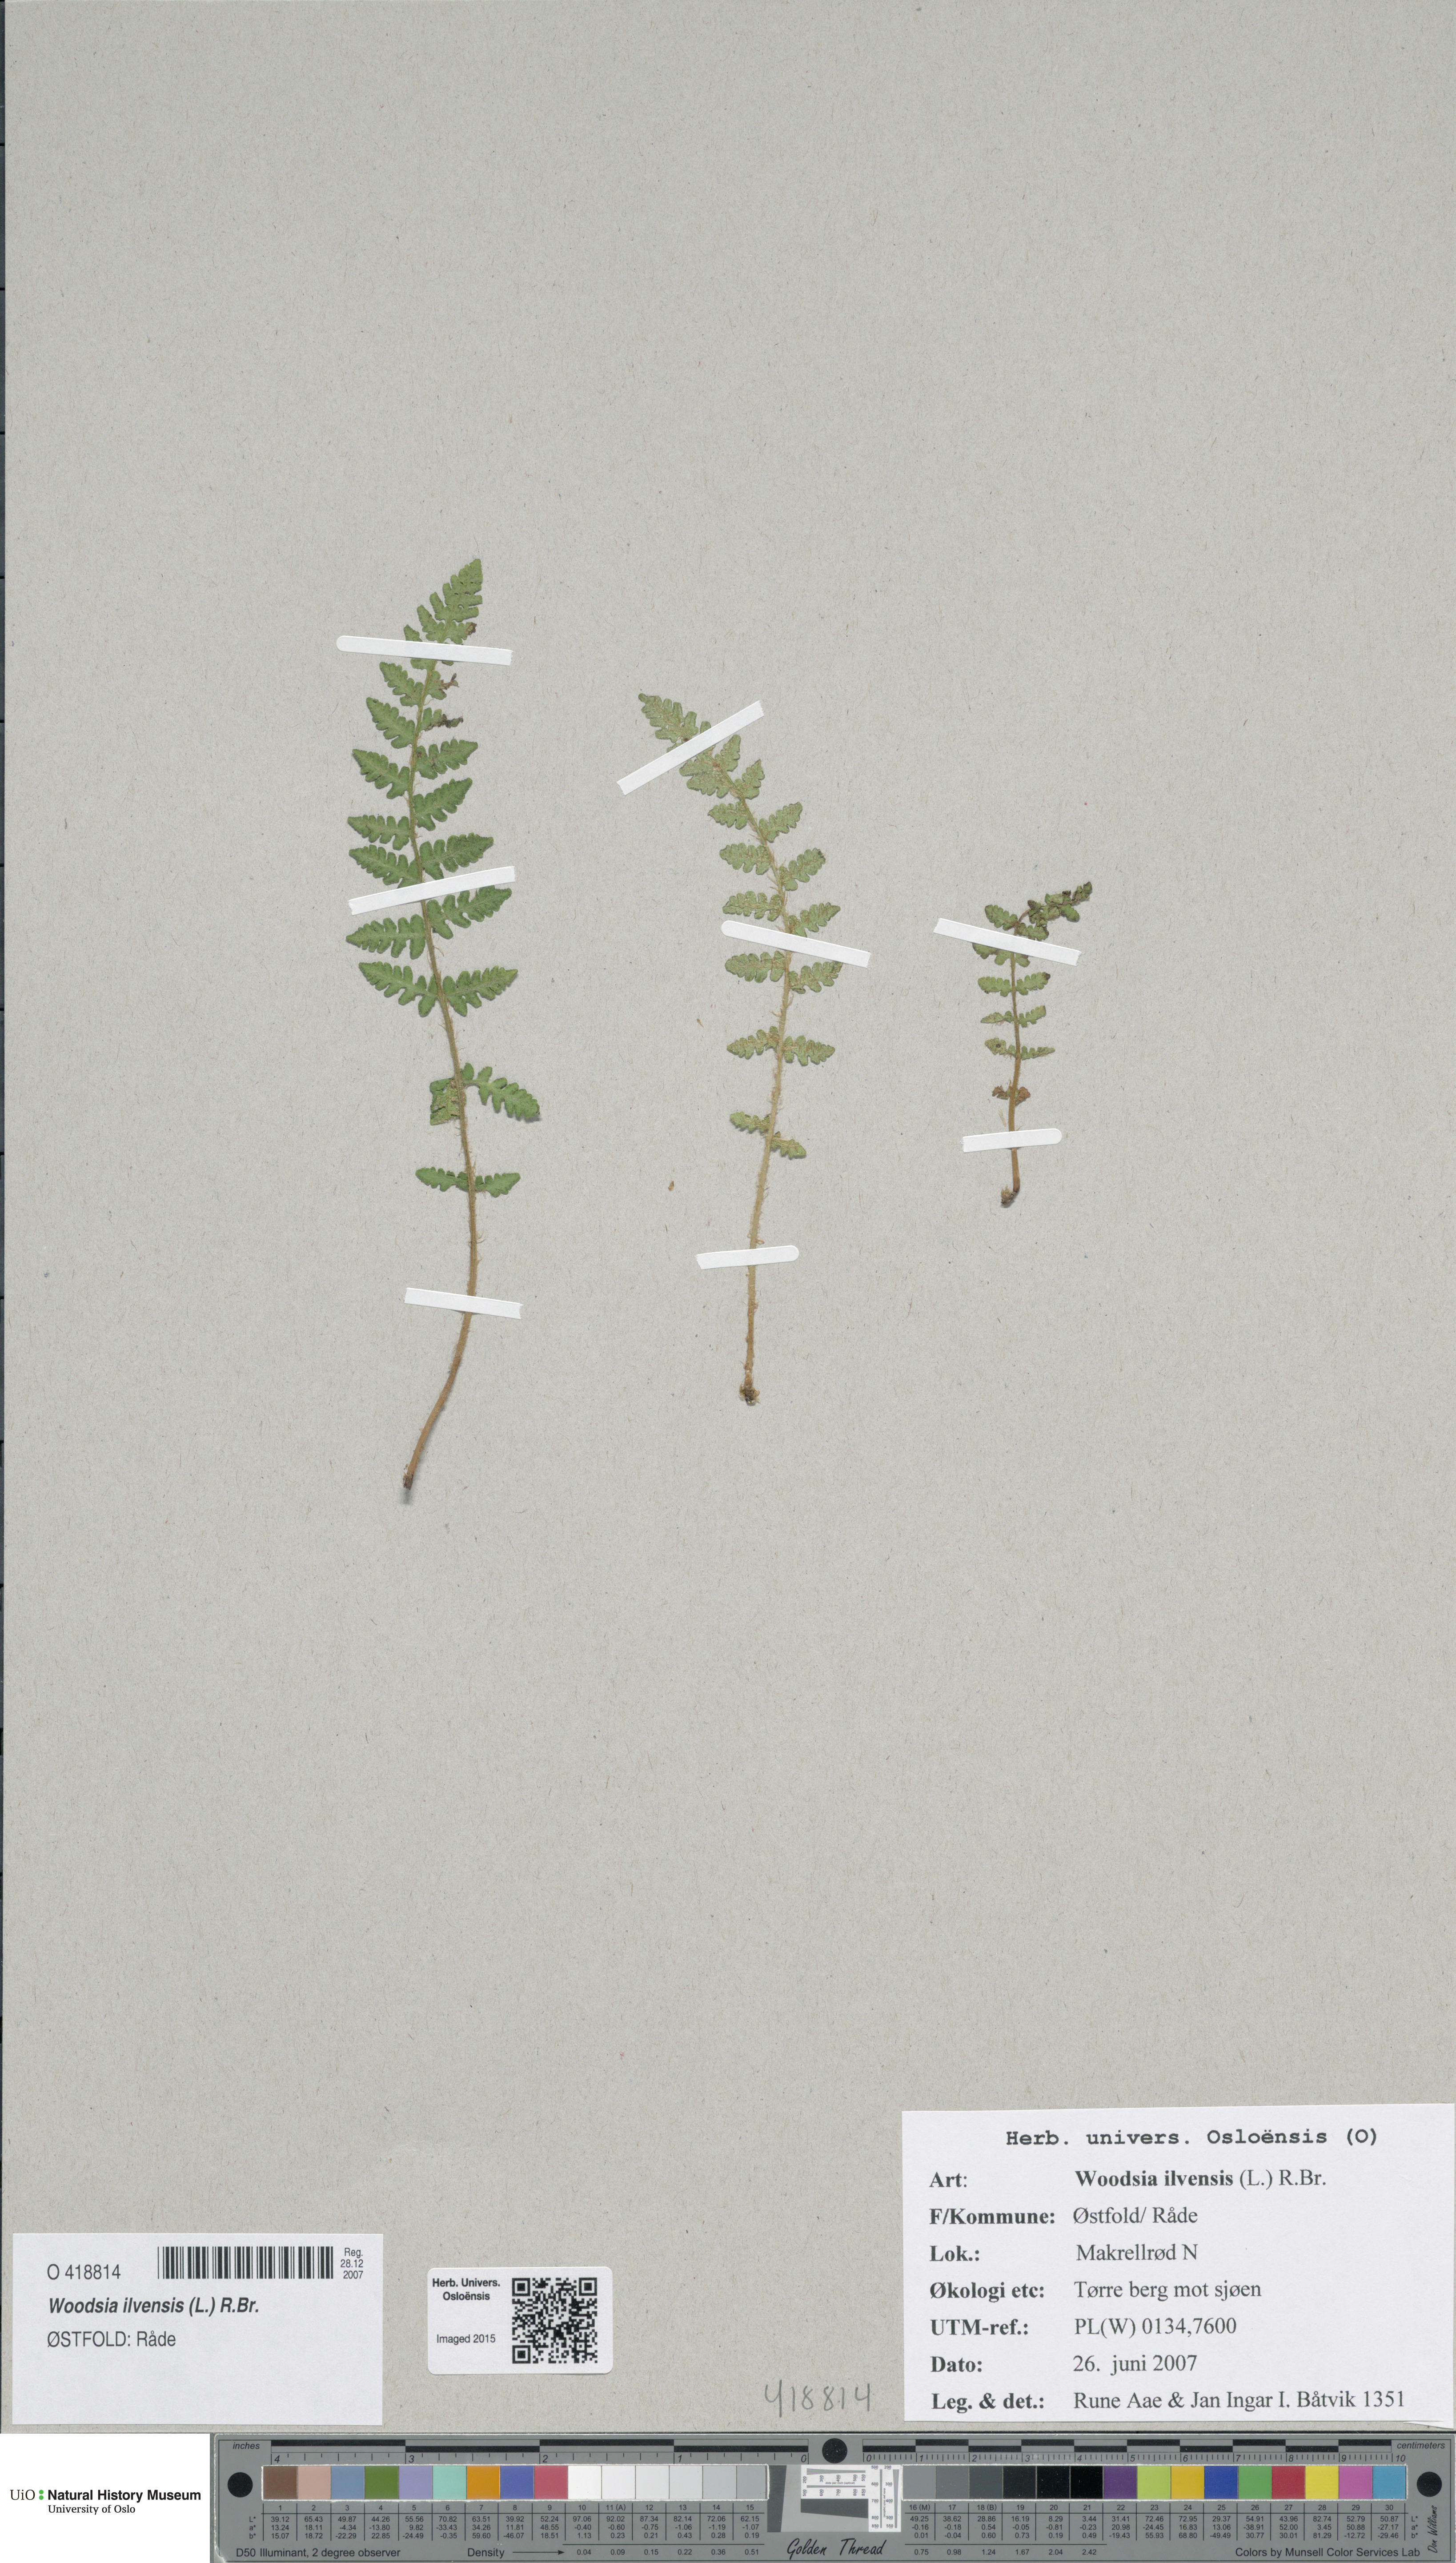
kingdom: Plantae
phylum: Tracheophyta
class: Polypodiopsida
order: Polypodiales
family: Woodsiaceae
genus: Woodsia
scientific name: Woodsia ilvensis
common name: Fragrant woodsia
